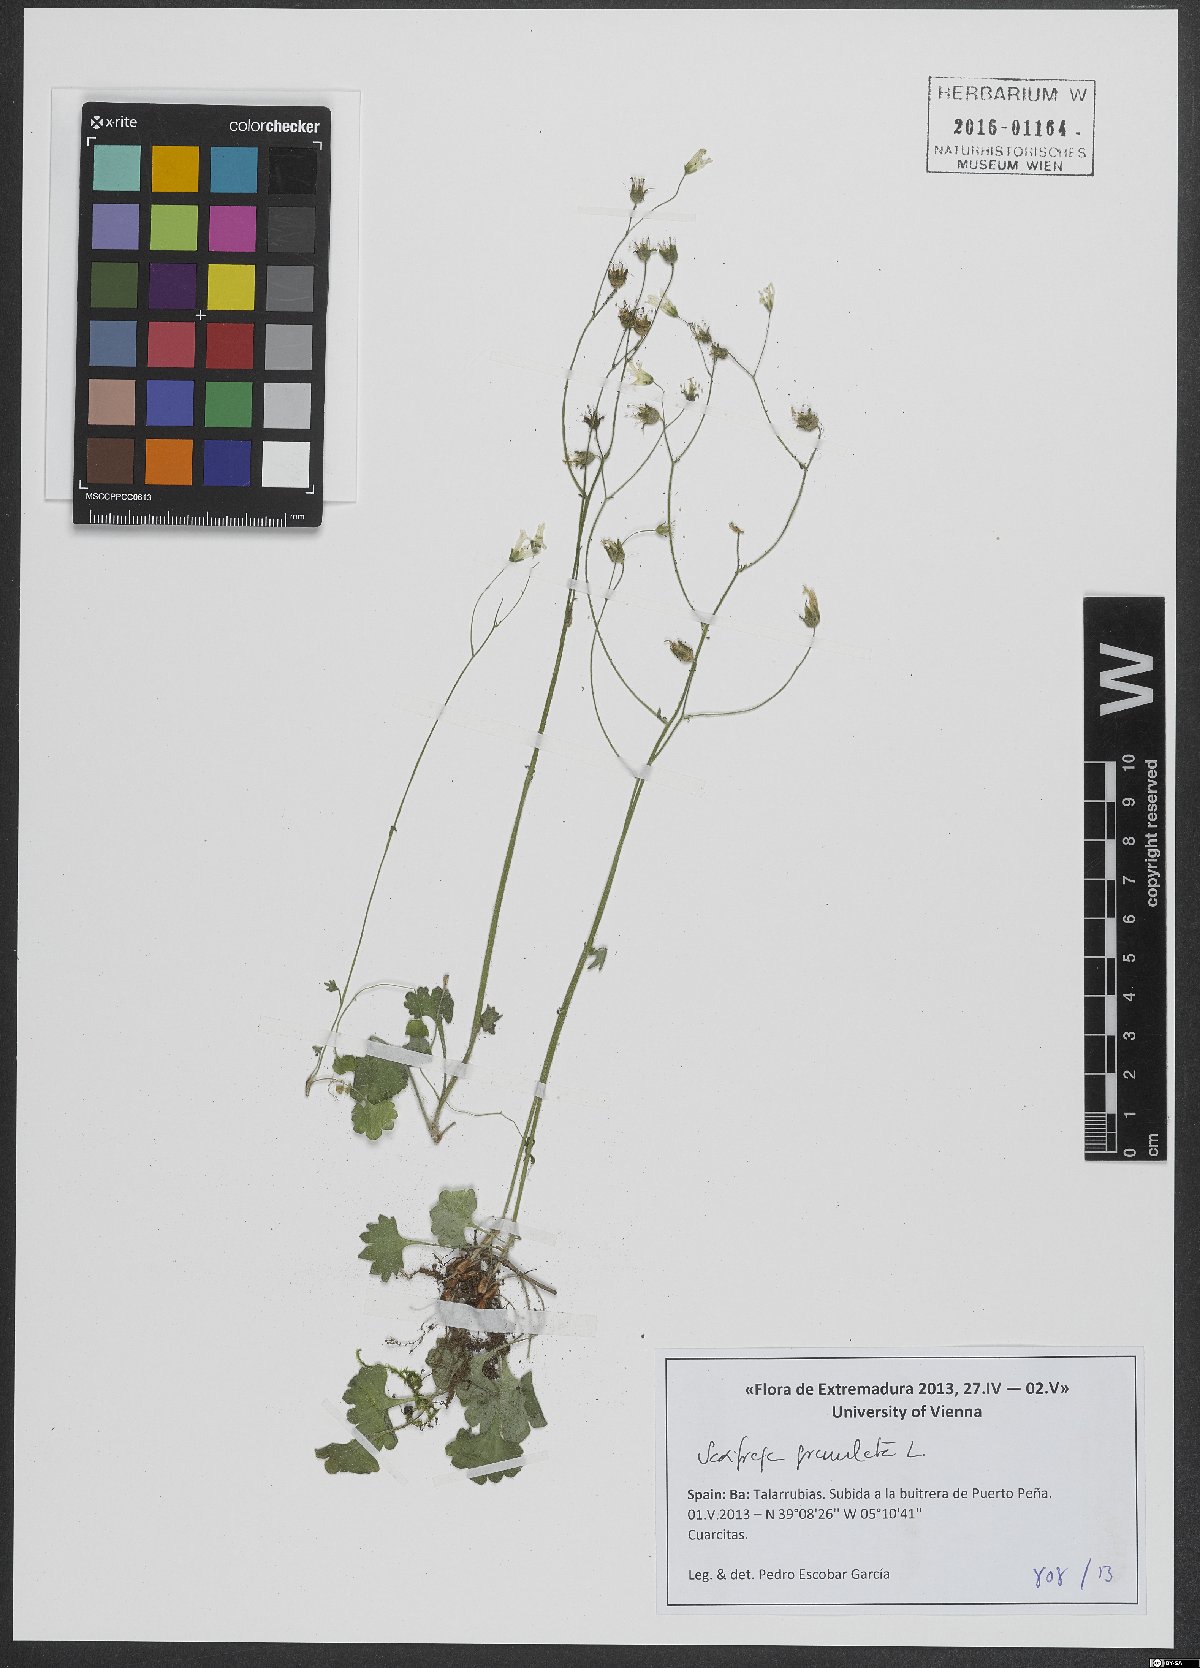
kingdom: Plantae
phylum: Tracheophyta
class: Magnoliopsida
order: Saxifragales
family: Saxifragaceae
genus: Saxifraga
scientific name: Saxifraga granulata
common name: Meadow saxifrage
